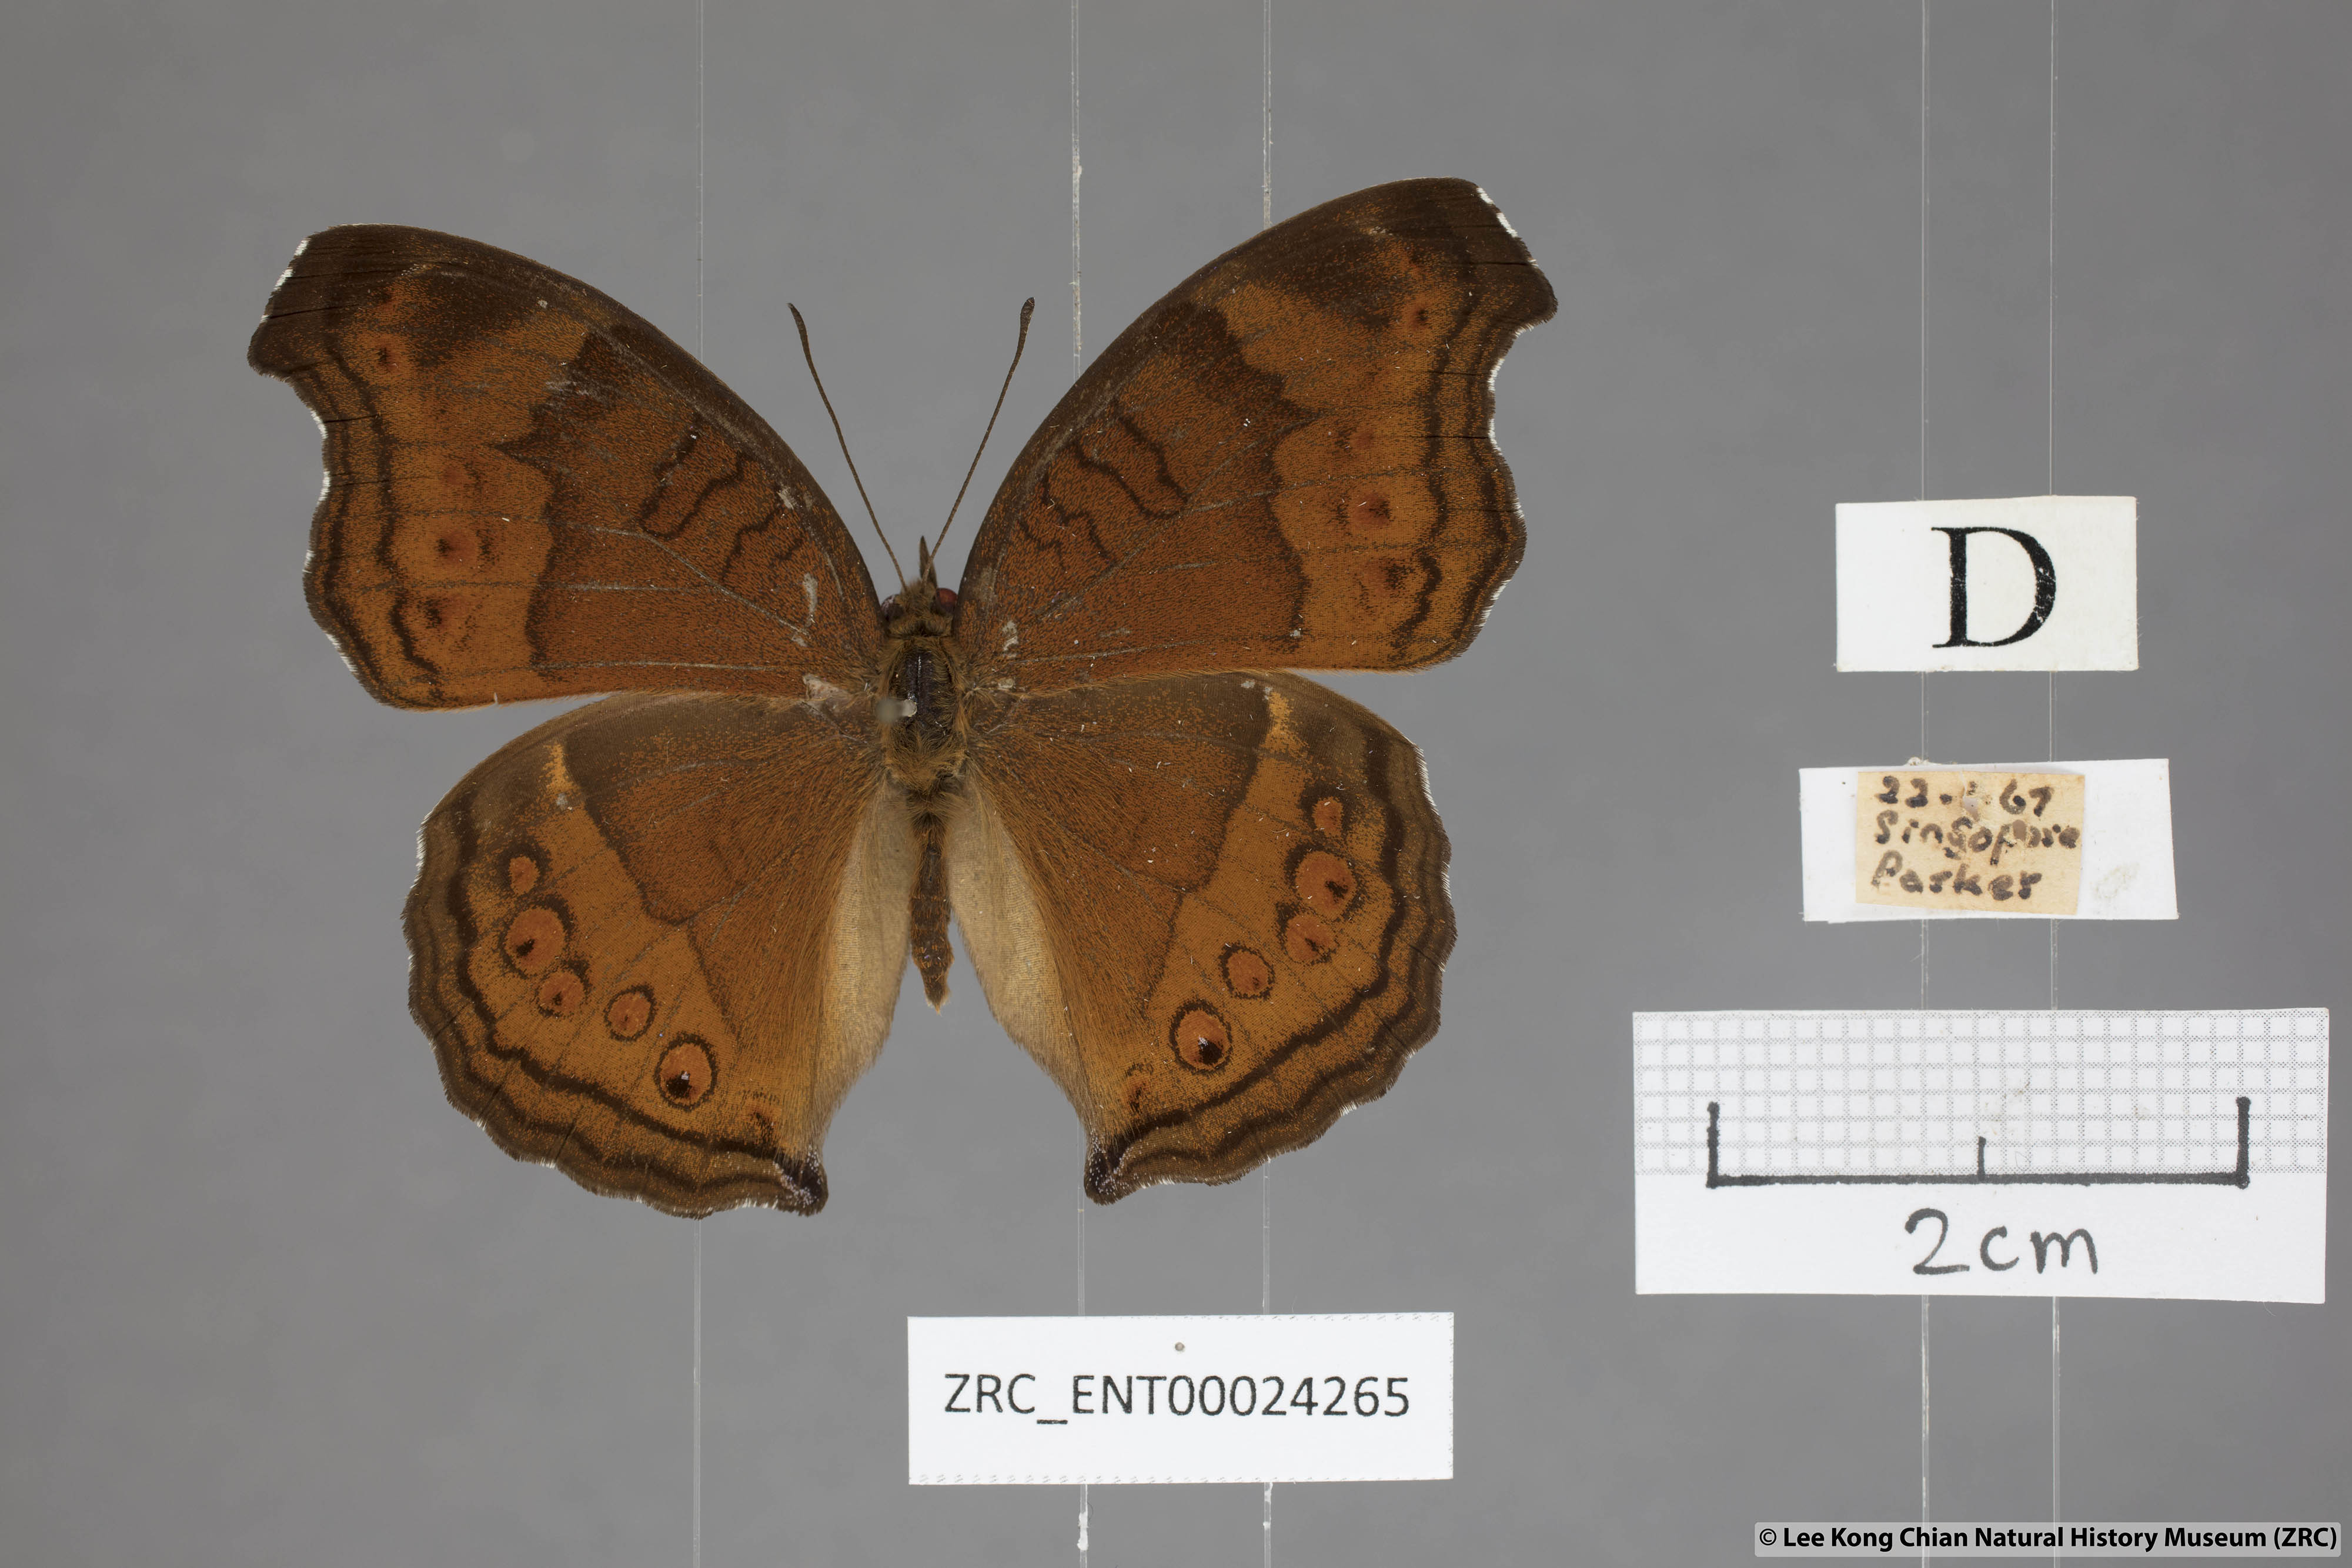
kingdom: Animalia
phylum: Arthropoda
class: Insecta
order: Lepidoptera
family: Nymphalidae
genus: Junonia
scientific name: Junonia hedonia
